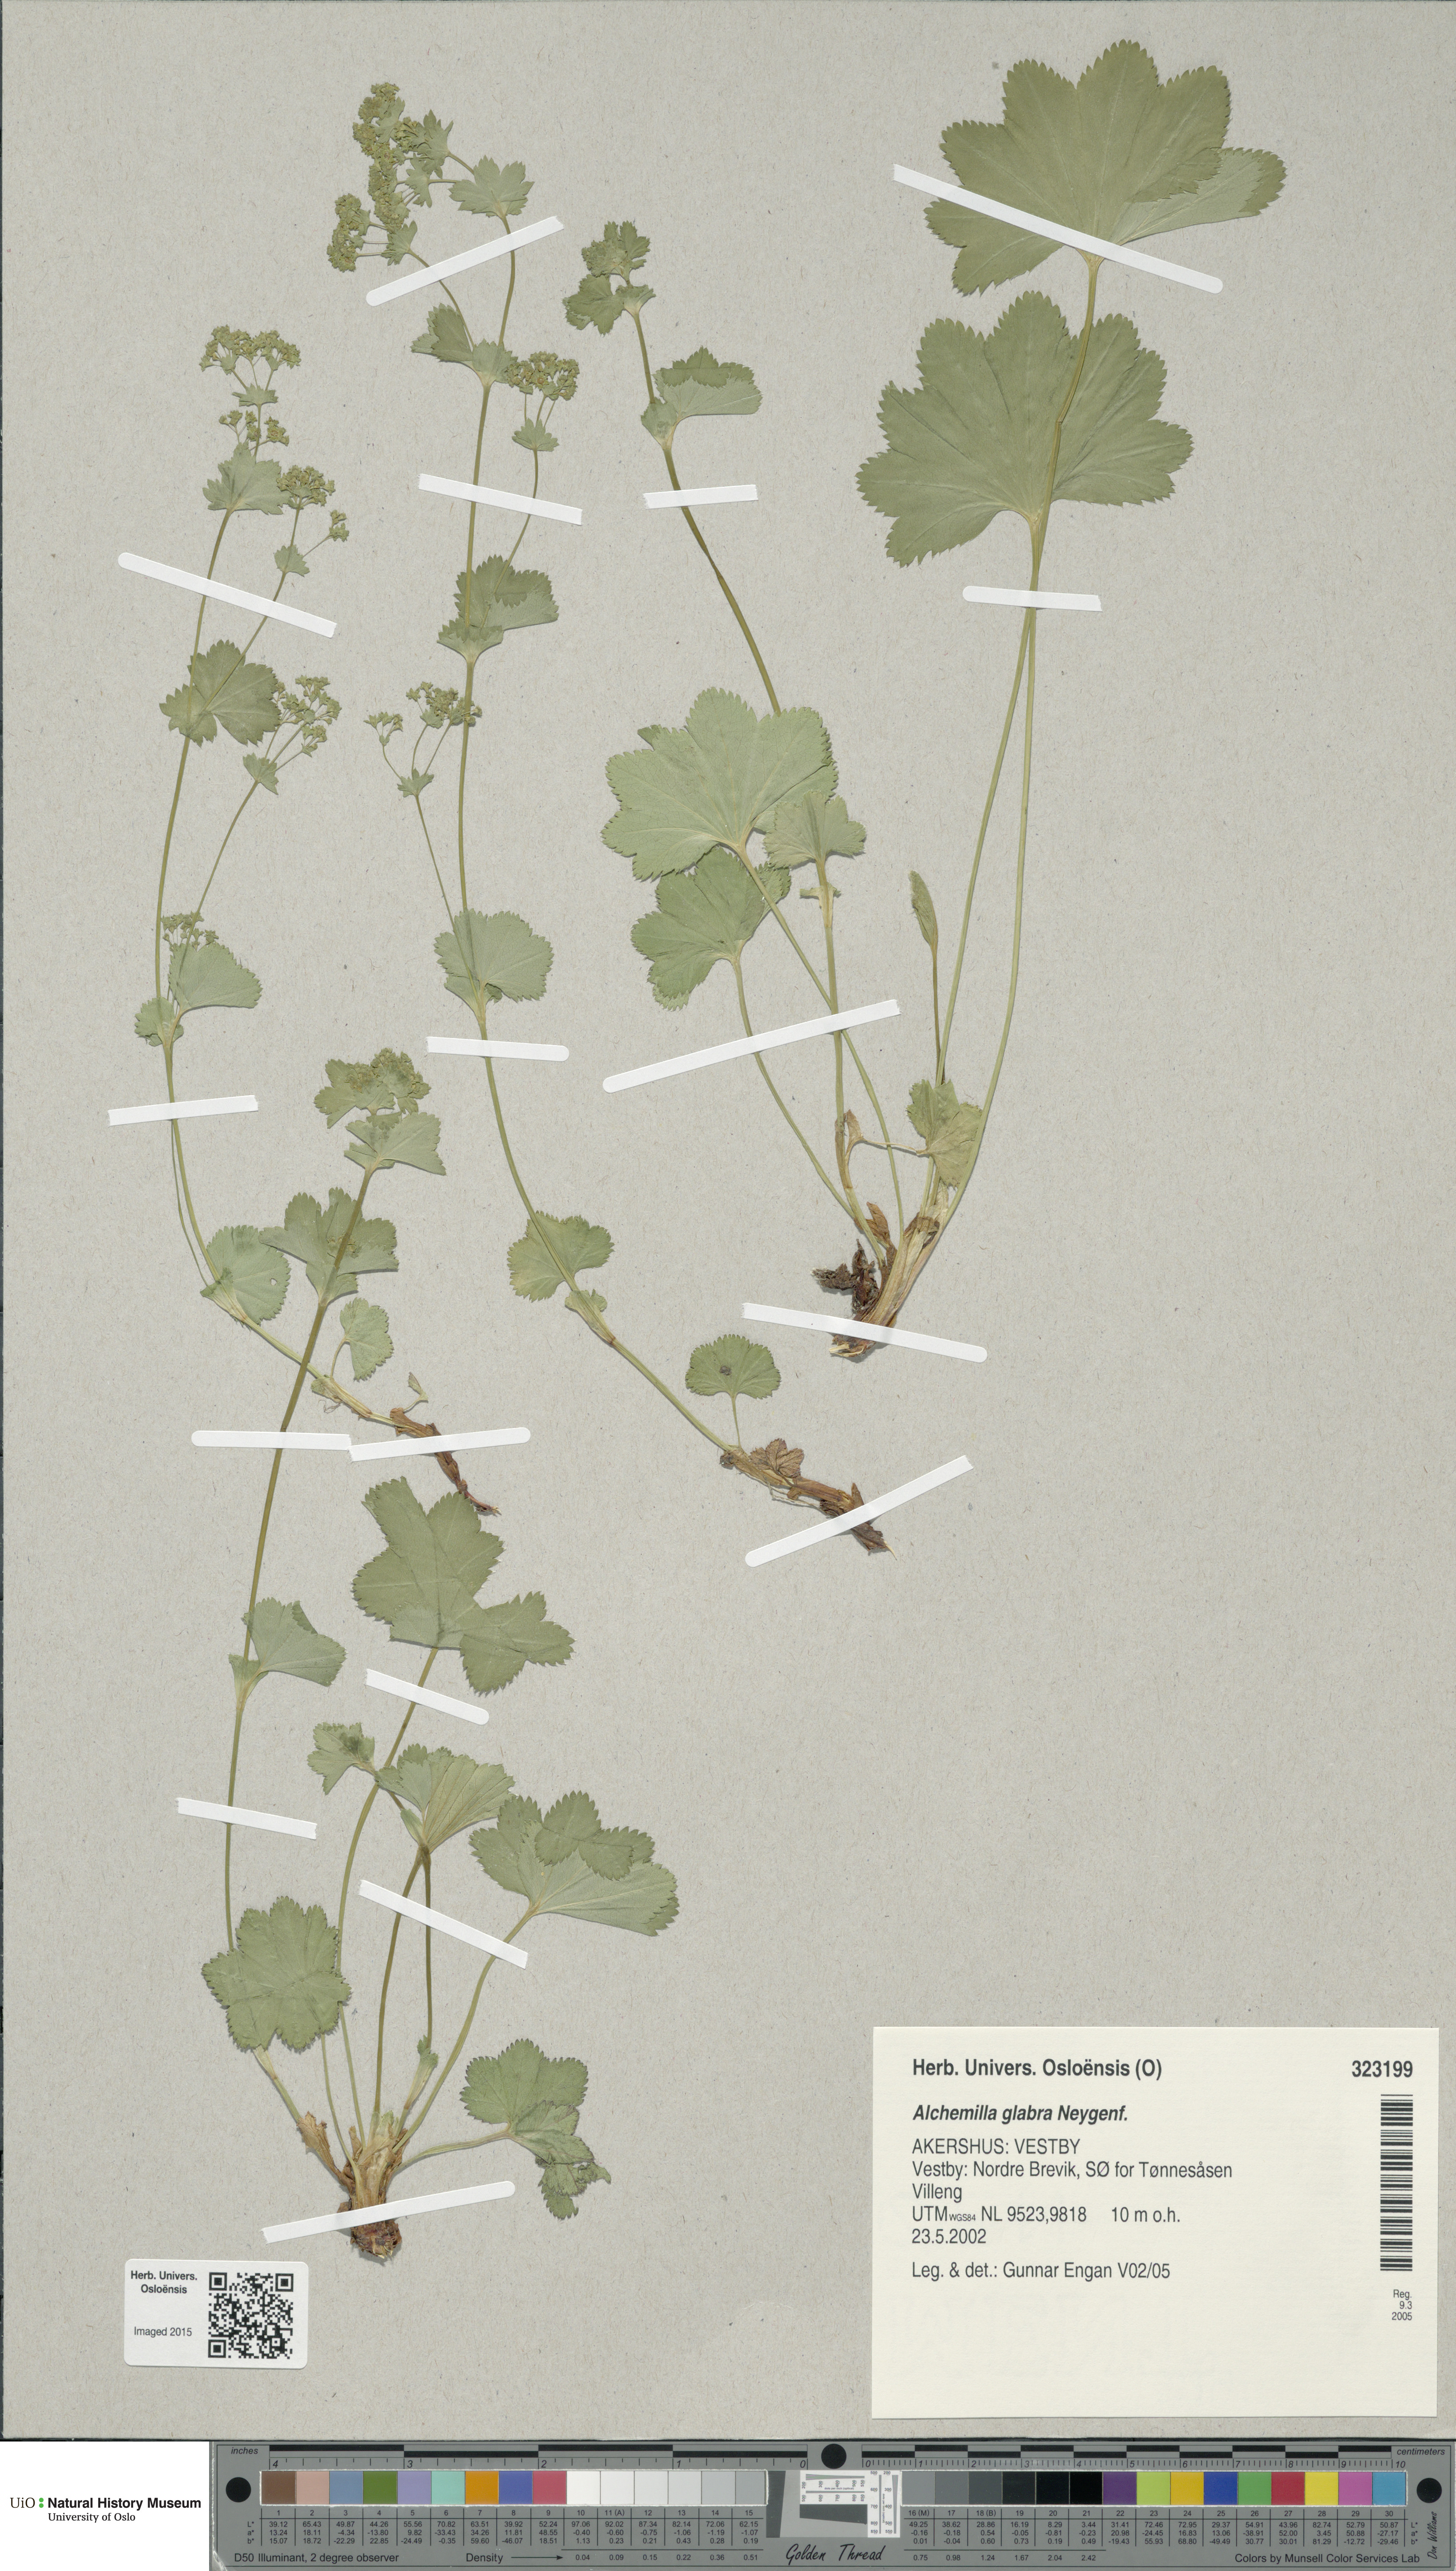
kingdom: Plantae
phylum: Tracheophyta
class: Magnoliopsida
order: Rosales
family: Rosaceae
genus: Alchemilla
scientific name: Alchemilla glabra
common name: Smooth lady's-mantle
